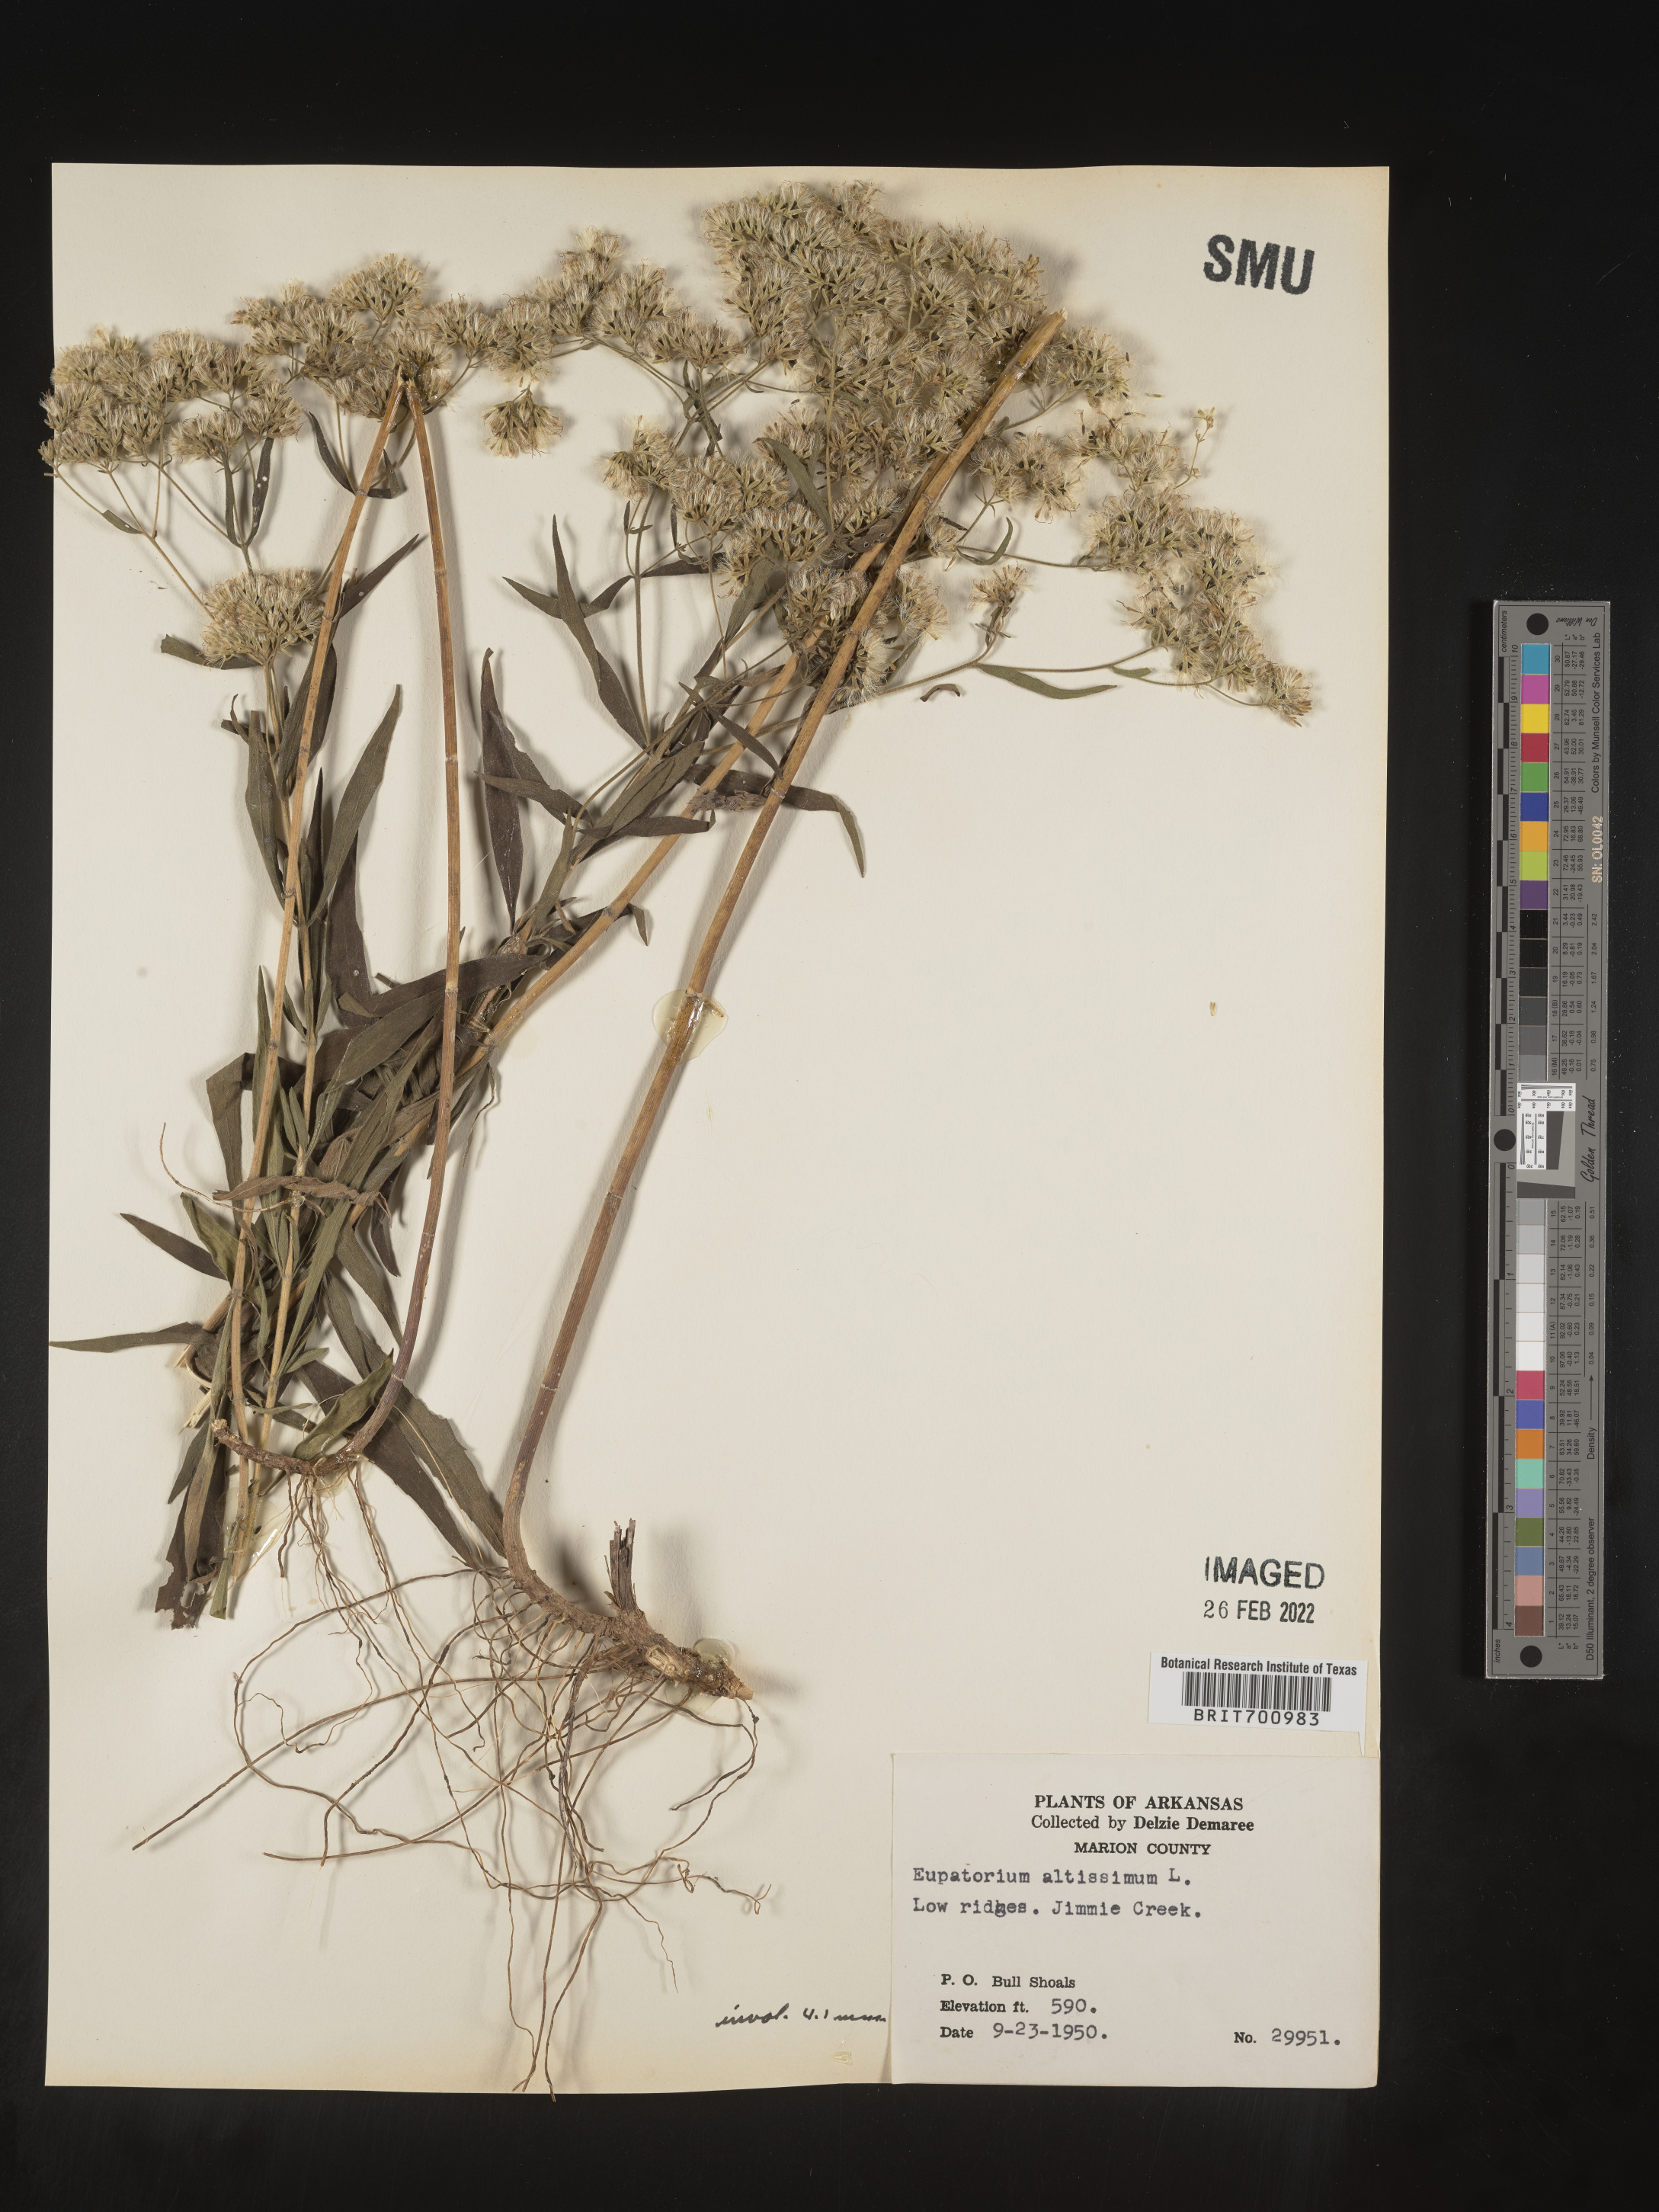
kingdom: Plantae
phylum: Tracheophyta
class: Magnoliopsida
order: Asterales
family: Asteraceae
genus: Eupatorium
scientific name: Eupatorium altissimum
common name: Tall thoroughwort
